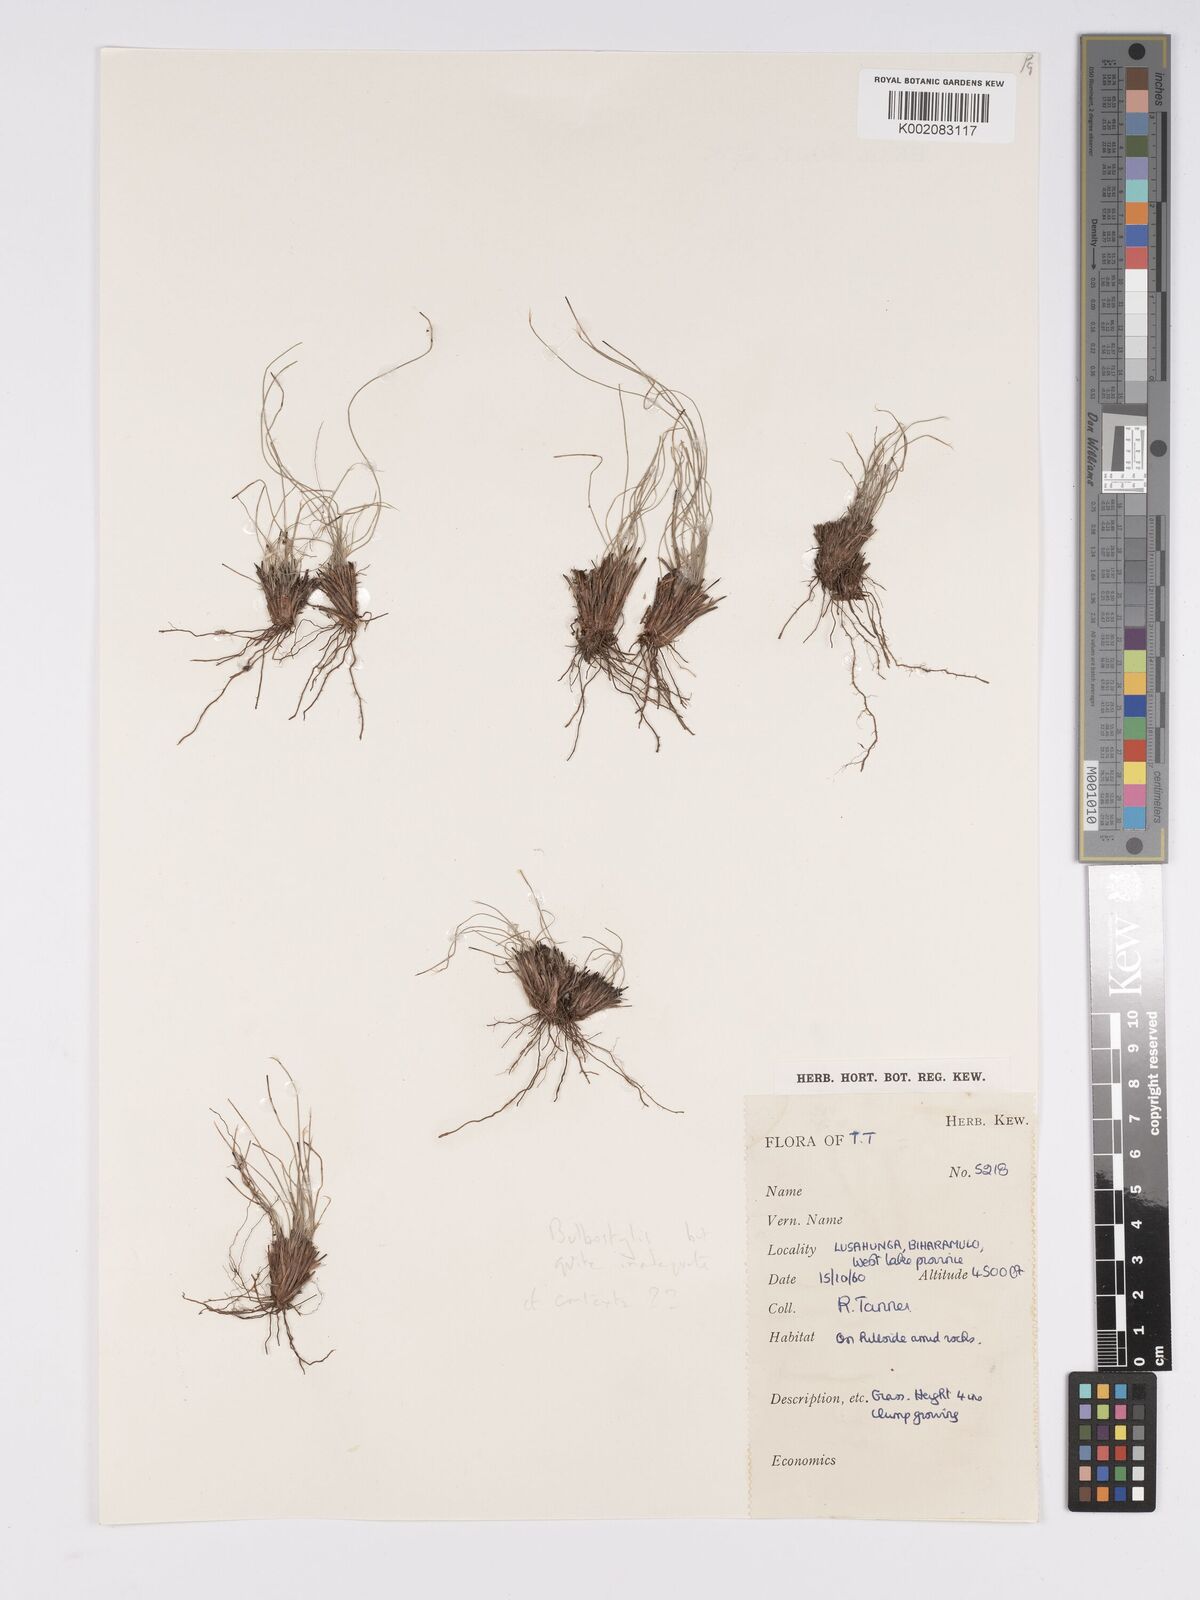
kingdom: Plantae
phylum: Tracheophyta
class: Magnoliopsida
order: Asterales
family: Asteraceae
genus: Bulbostylis
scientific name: Bulbostylis
